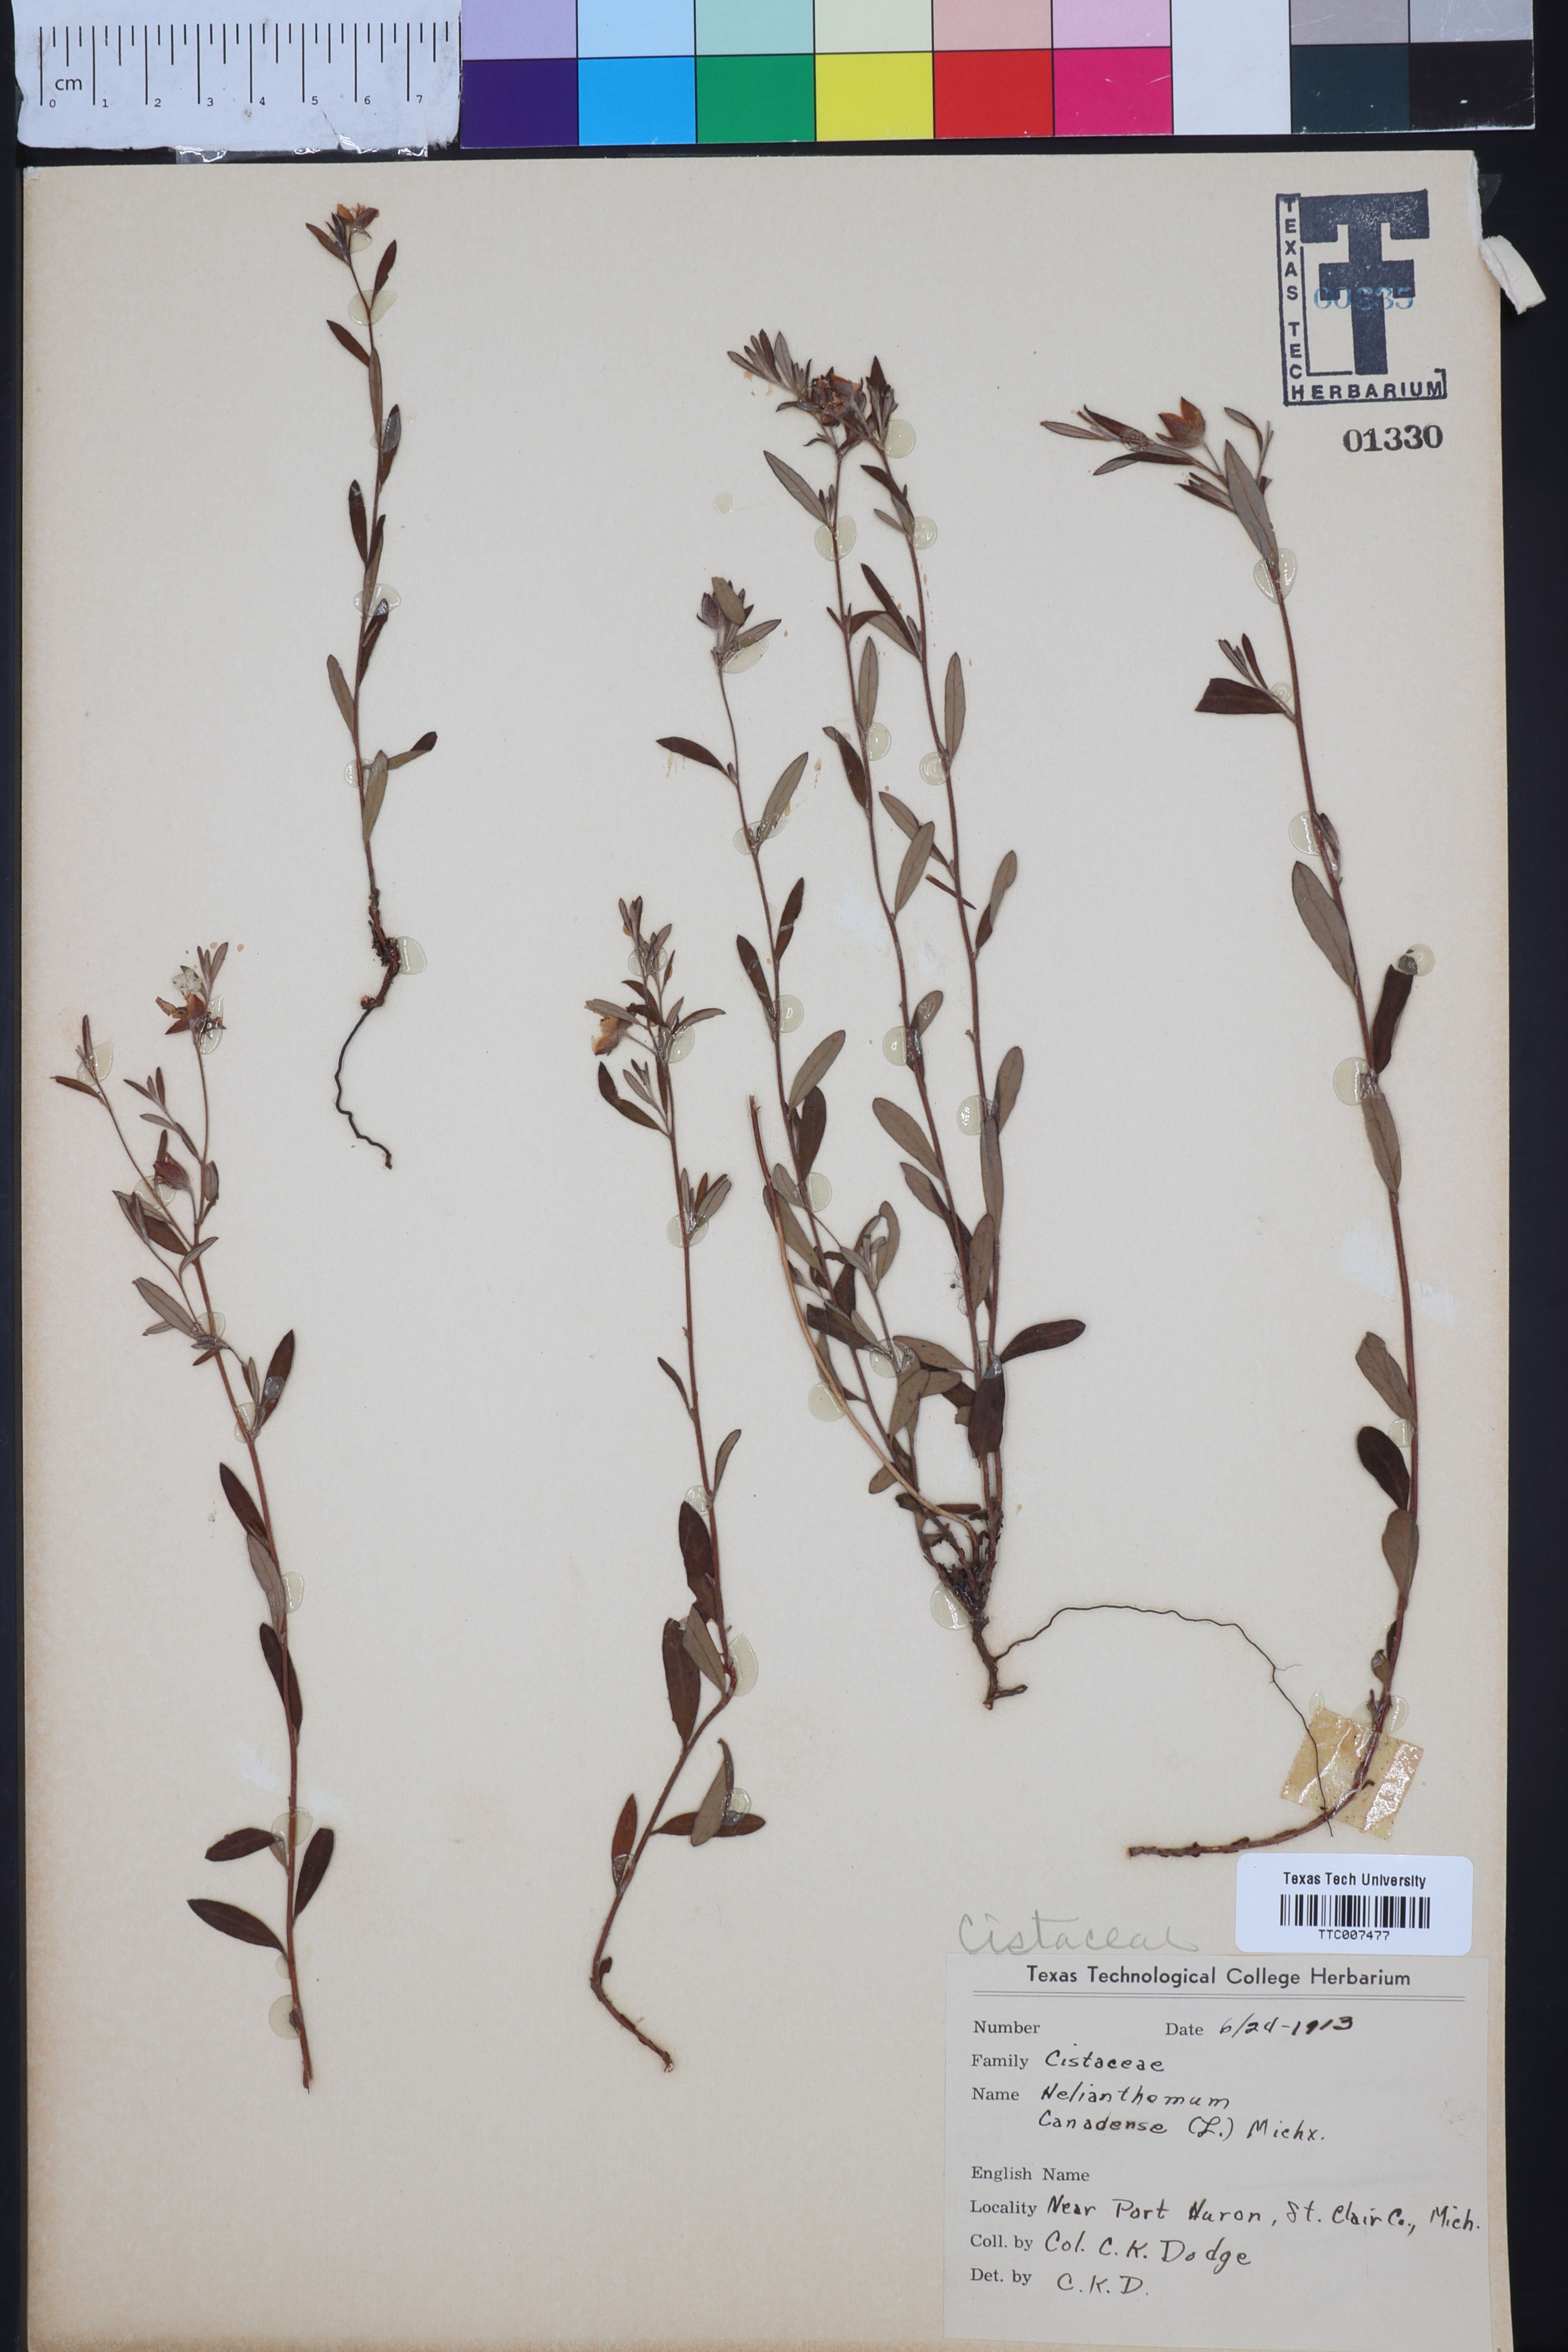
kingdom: Plantae
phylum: Tracheophyta
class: Magnoliopsida
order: Malvales
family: Cistaceae
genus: Crocanthemum
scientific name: Crocanthemum canadense
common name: Canada frostweed
